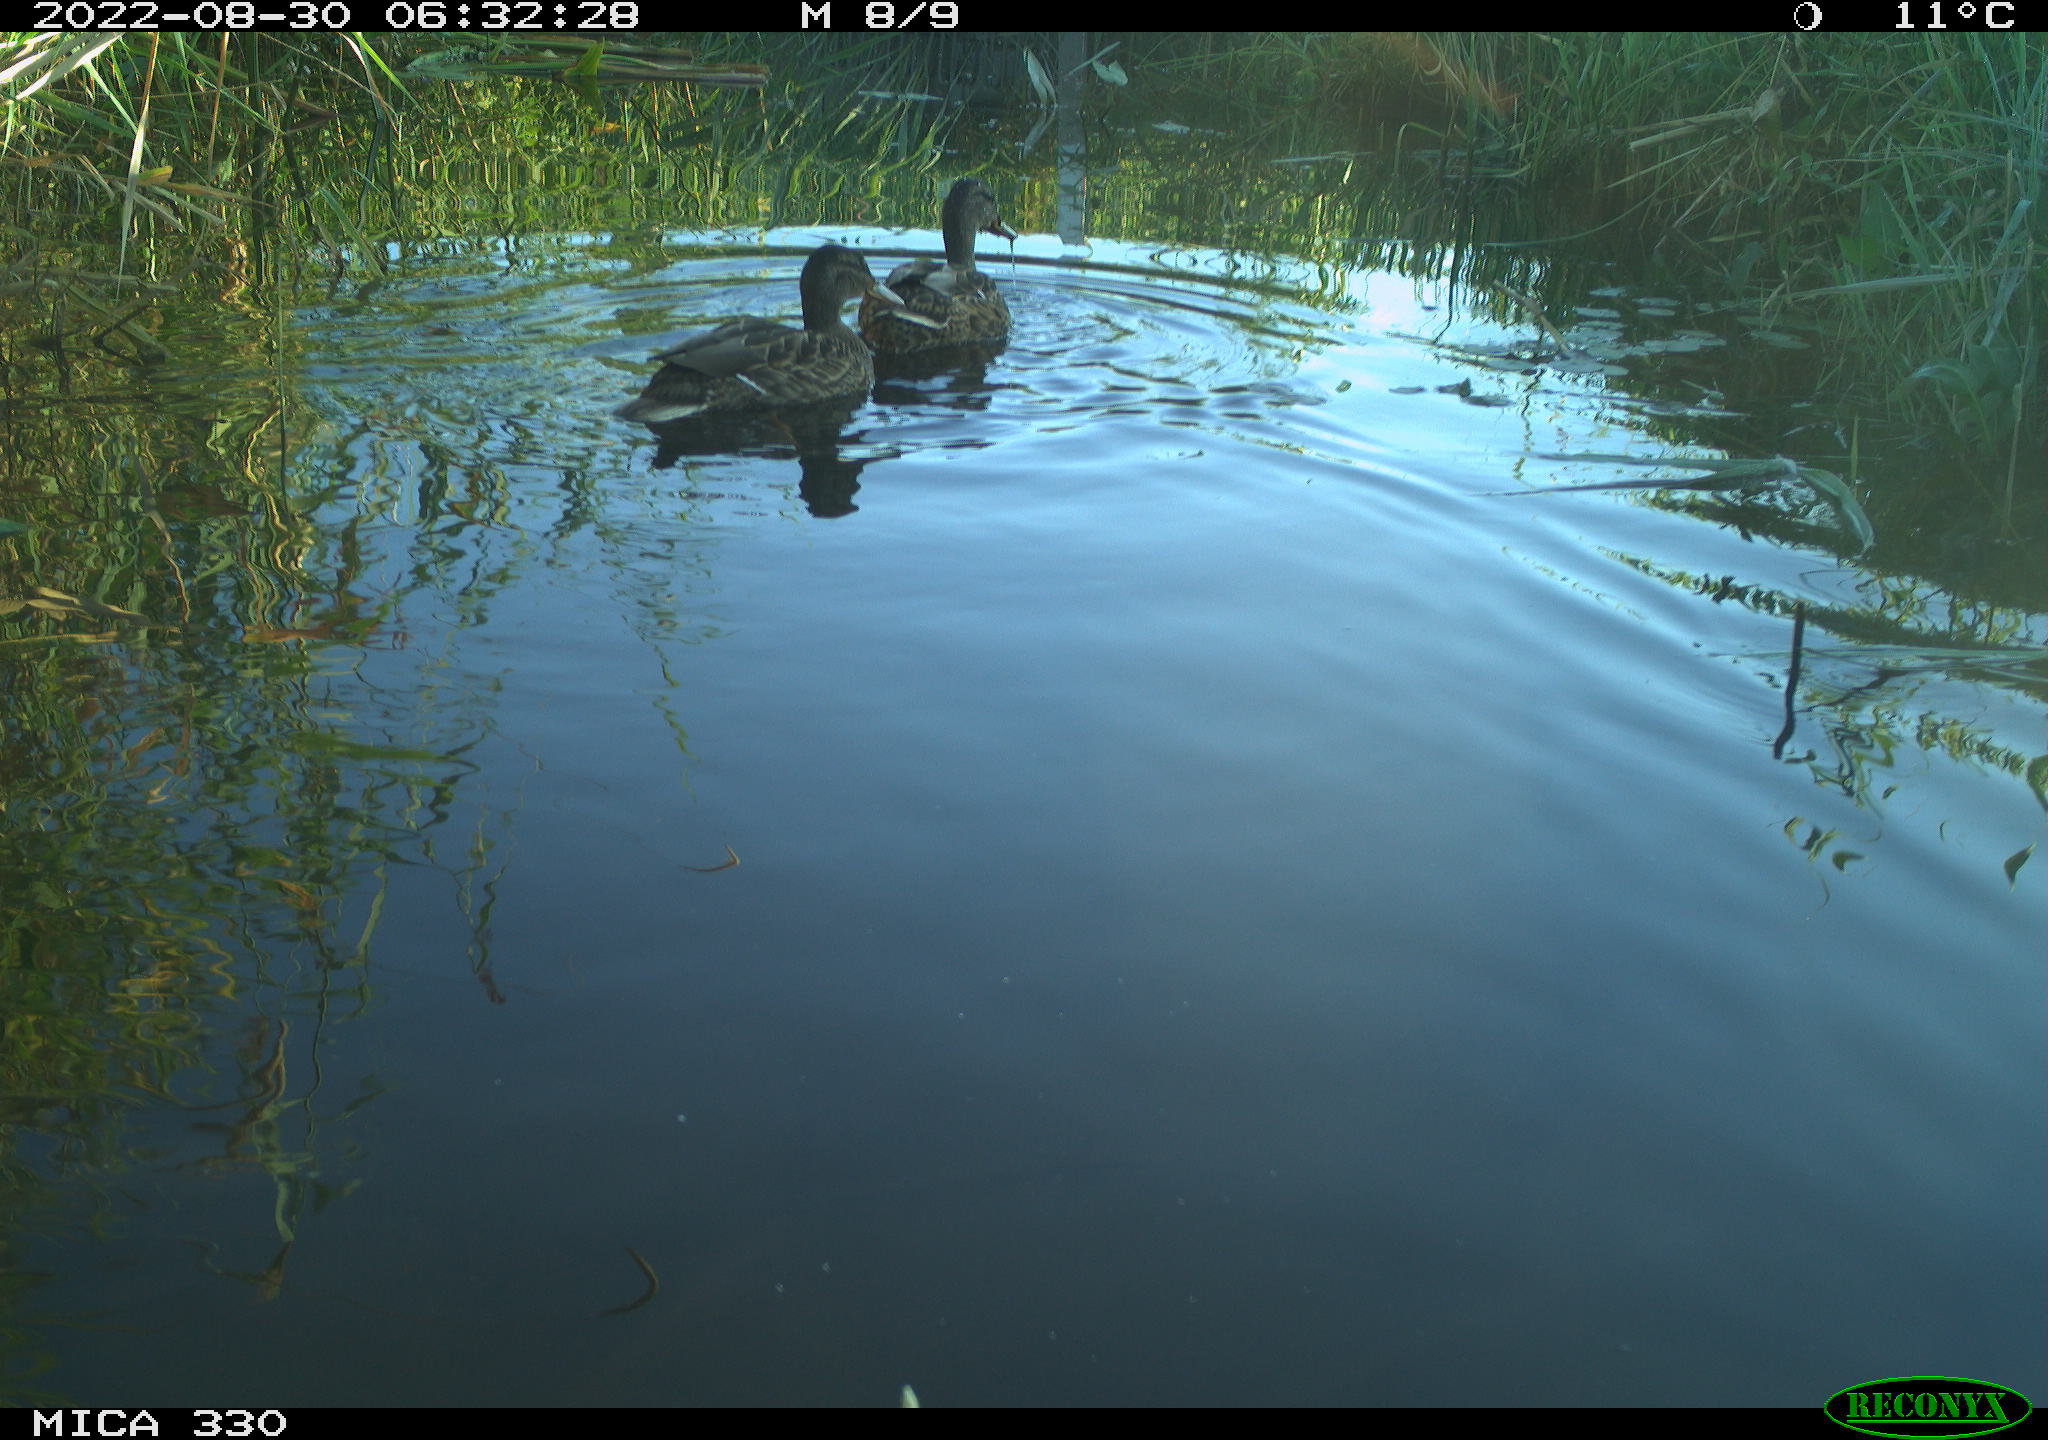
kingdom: Animalia
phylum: Chordata
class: Aves
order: Anseriformes
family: Anatidae
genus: Mareca
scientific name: Mareca strepera
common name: Gadwall
